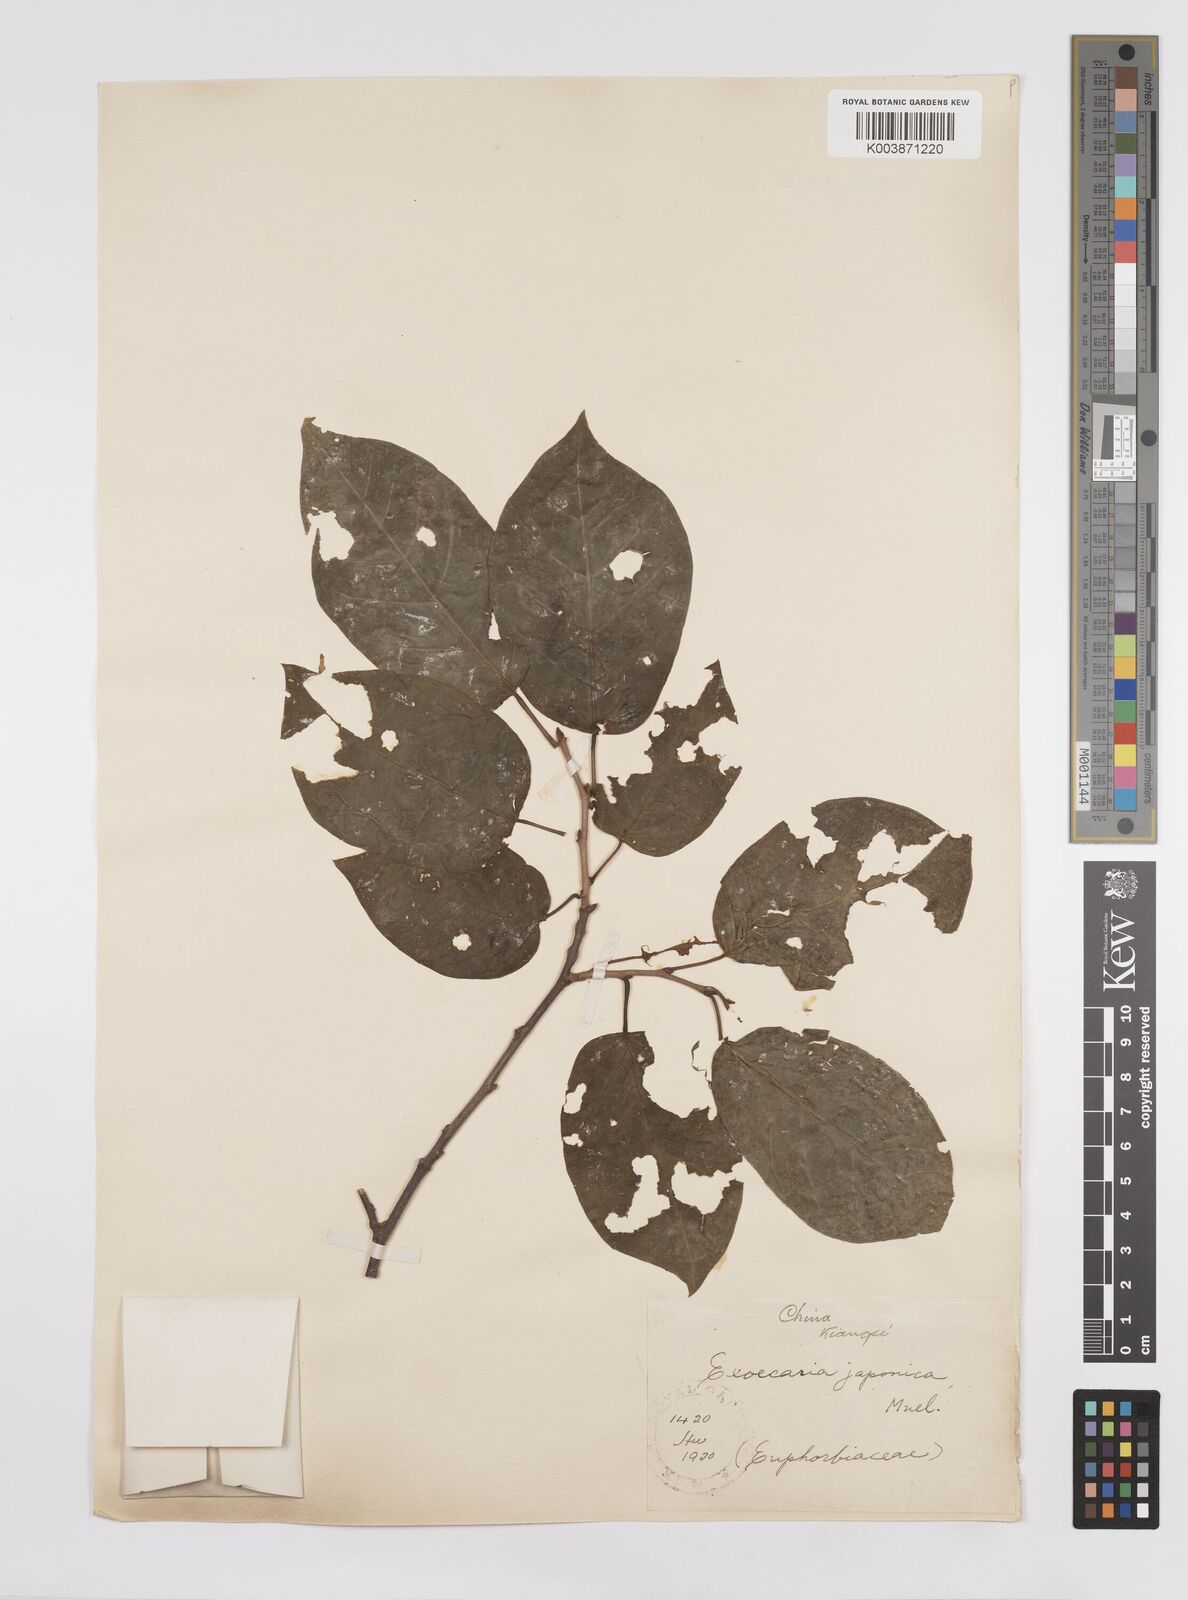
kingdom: Plantae
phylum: Tracheophyta
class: Magnoliopsida
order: Malpighiales
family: Euphorbiaceae
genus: Neoshirakia
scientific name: Neoshirakia japonica
